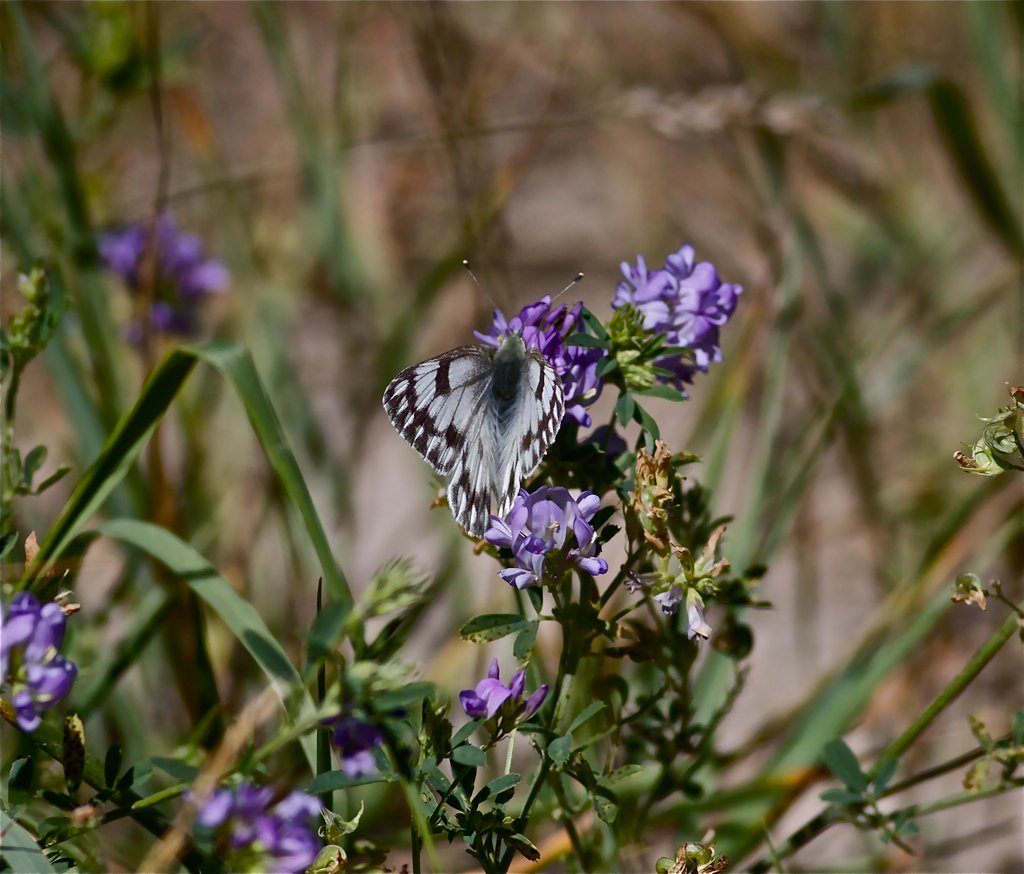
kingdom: Animalia
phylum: Arthropoda
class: Insecta
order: Lepidoptera
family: Pieridae
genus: Pontia
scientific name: Pontia occidentalis
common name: Western White
